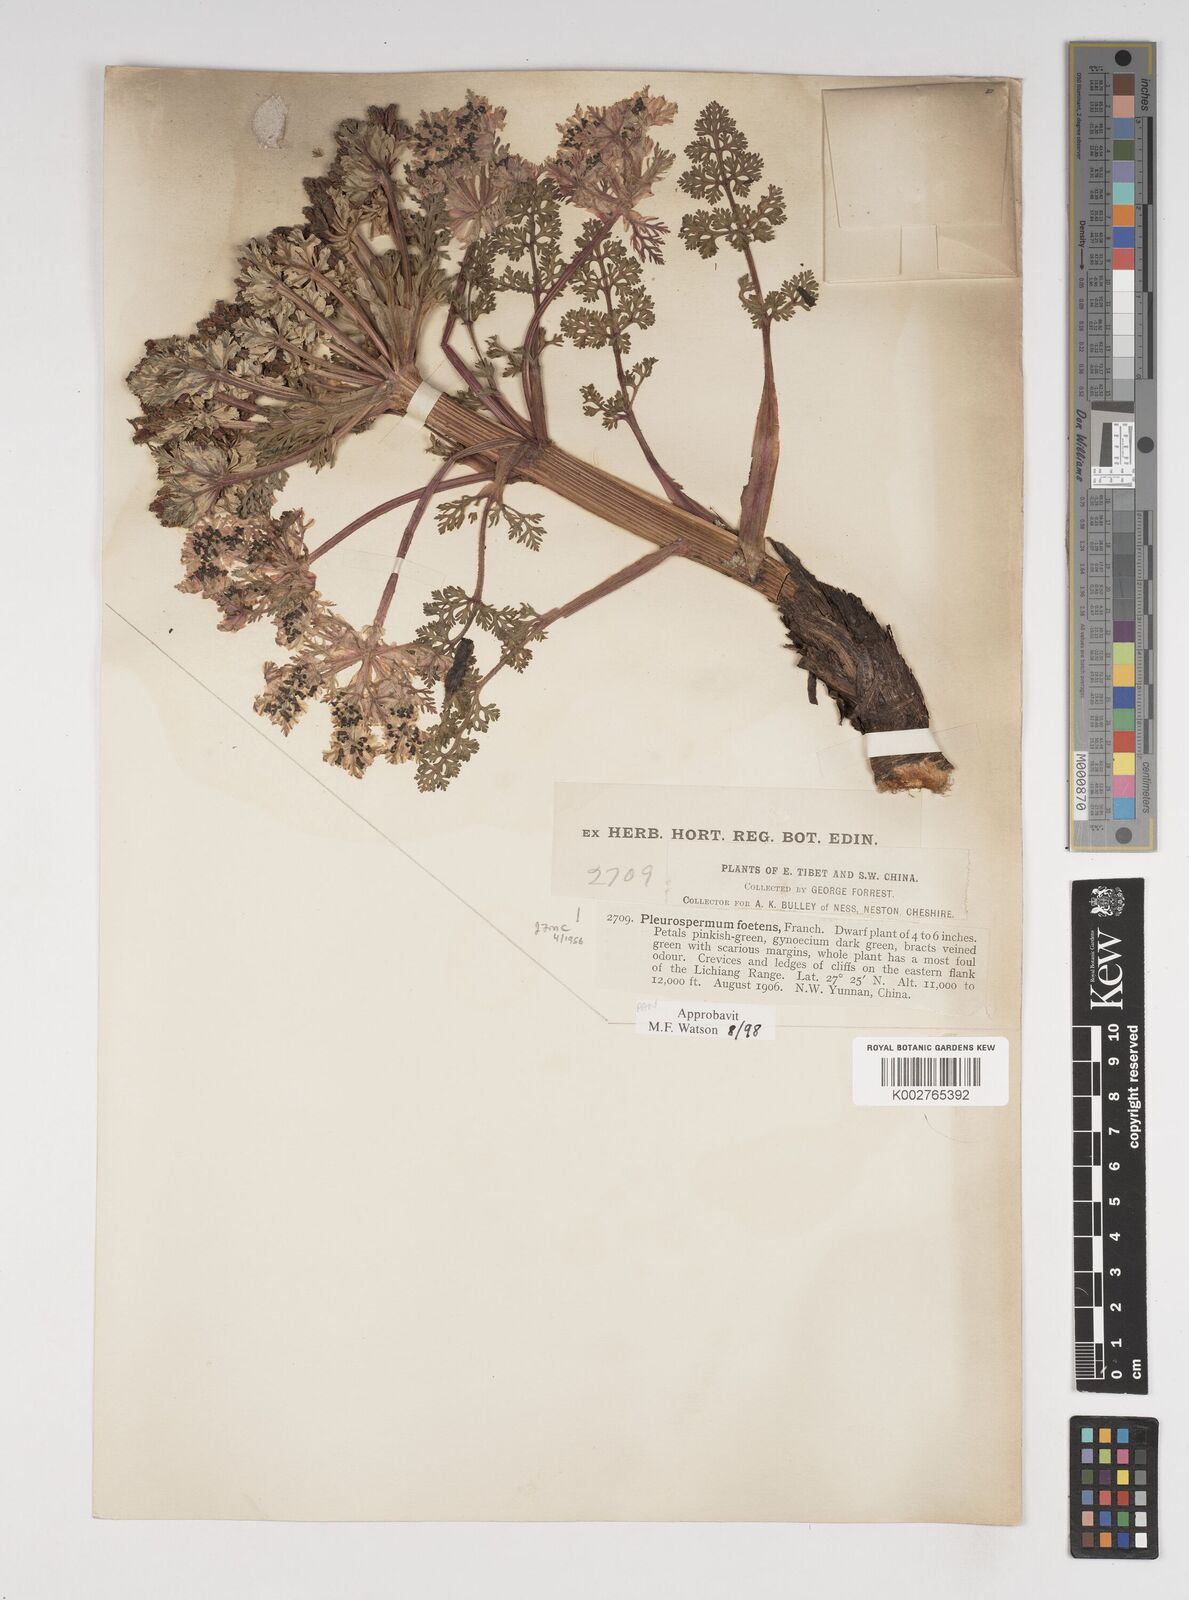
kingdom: Plantae
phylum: Tracheophyta
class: Magnoliopsida
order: Apiales
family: Apiaceae
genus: Hymenidium
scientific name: Hymenidium foetens
